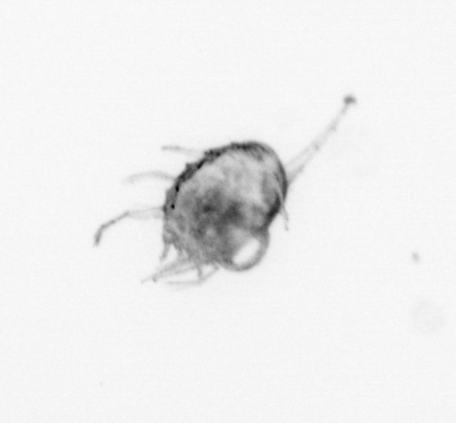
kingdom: Animalia
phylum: Arthropoda
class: Malacostraca
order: Decapoda
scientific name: Decapoda
